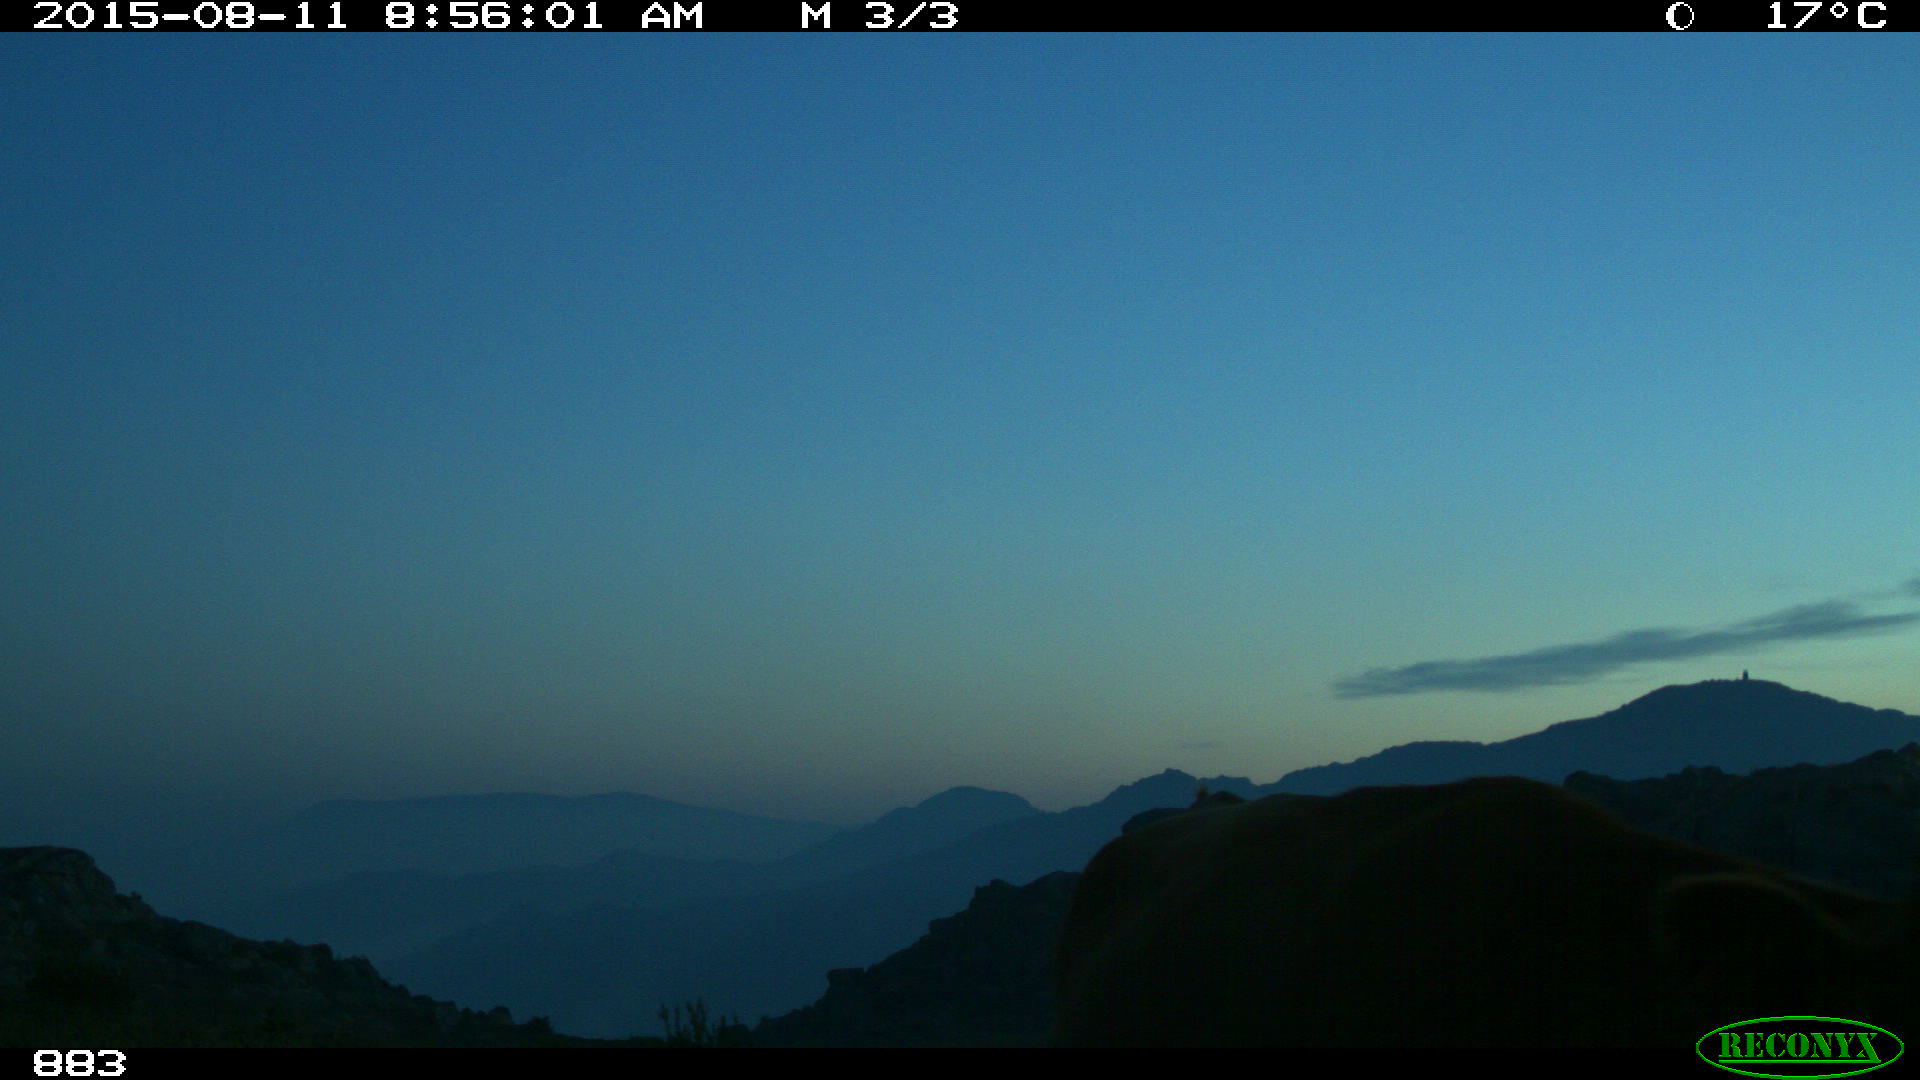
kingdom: Animalia
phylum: Chordata
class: Mammalia
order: Artiodactyla
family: Bovidae
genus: Bos
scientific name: Bos taurus
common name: Domesticated cattle
